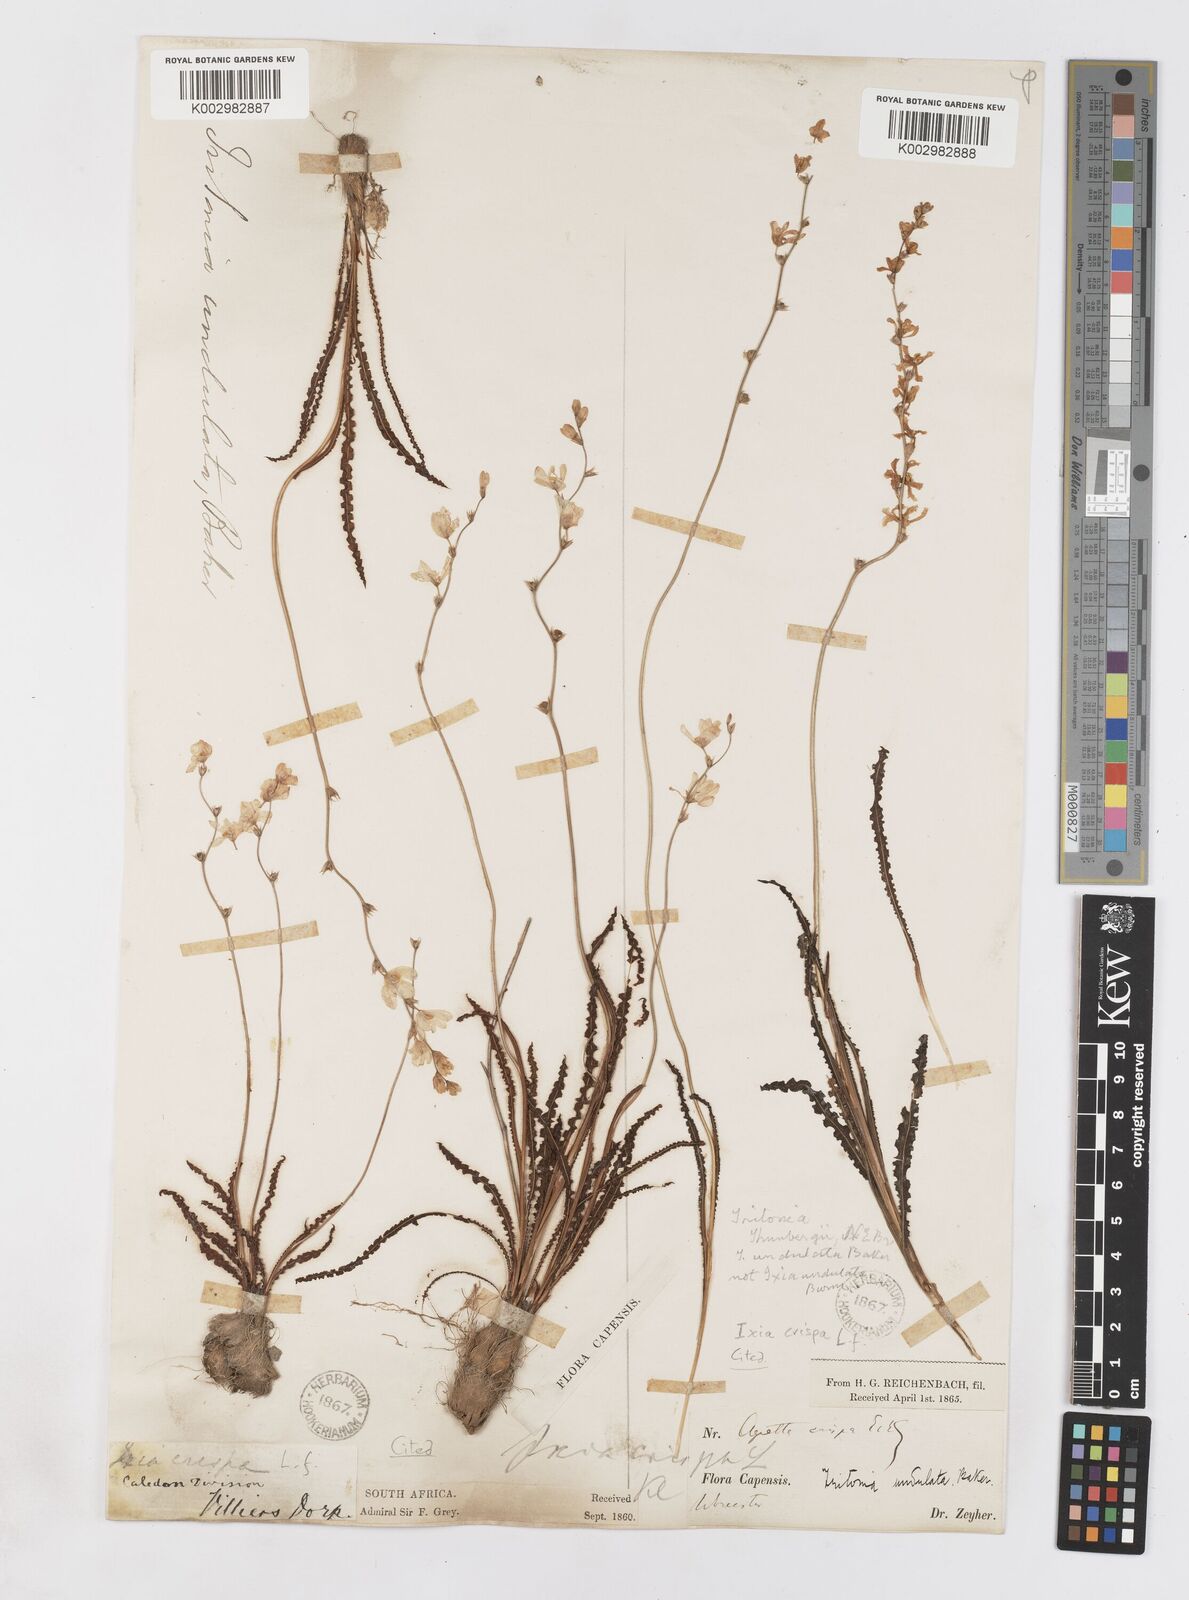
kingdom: Plantae
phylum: Tracheophyta
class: Liliopsida
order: Asparagales
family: Iridaceae
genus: Ixia
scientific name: Ixia erubescens
